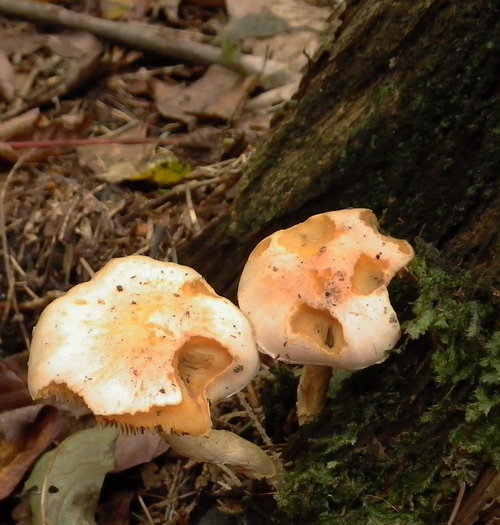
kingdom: Fungi
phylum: Basidiomycota
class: Agaricomycetes
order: Agaricales
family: Strophariaceae
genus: Pyrrhulomyces
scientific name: Pyrrhulomyces astragalinus
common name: safran-skælhat
